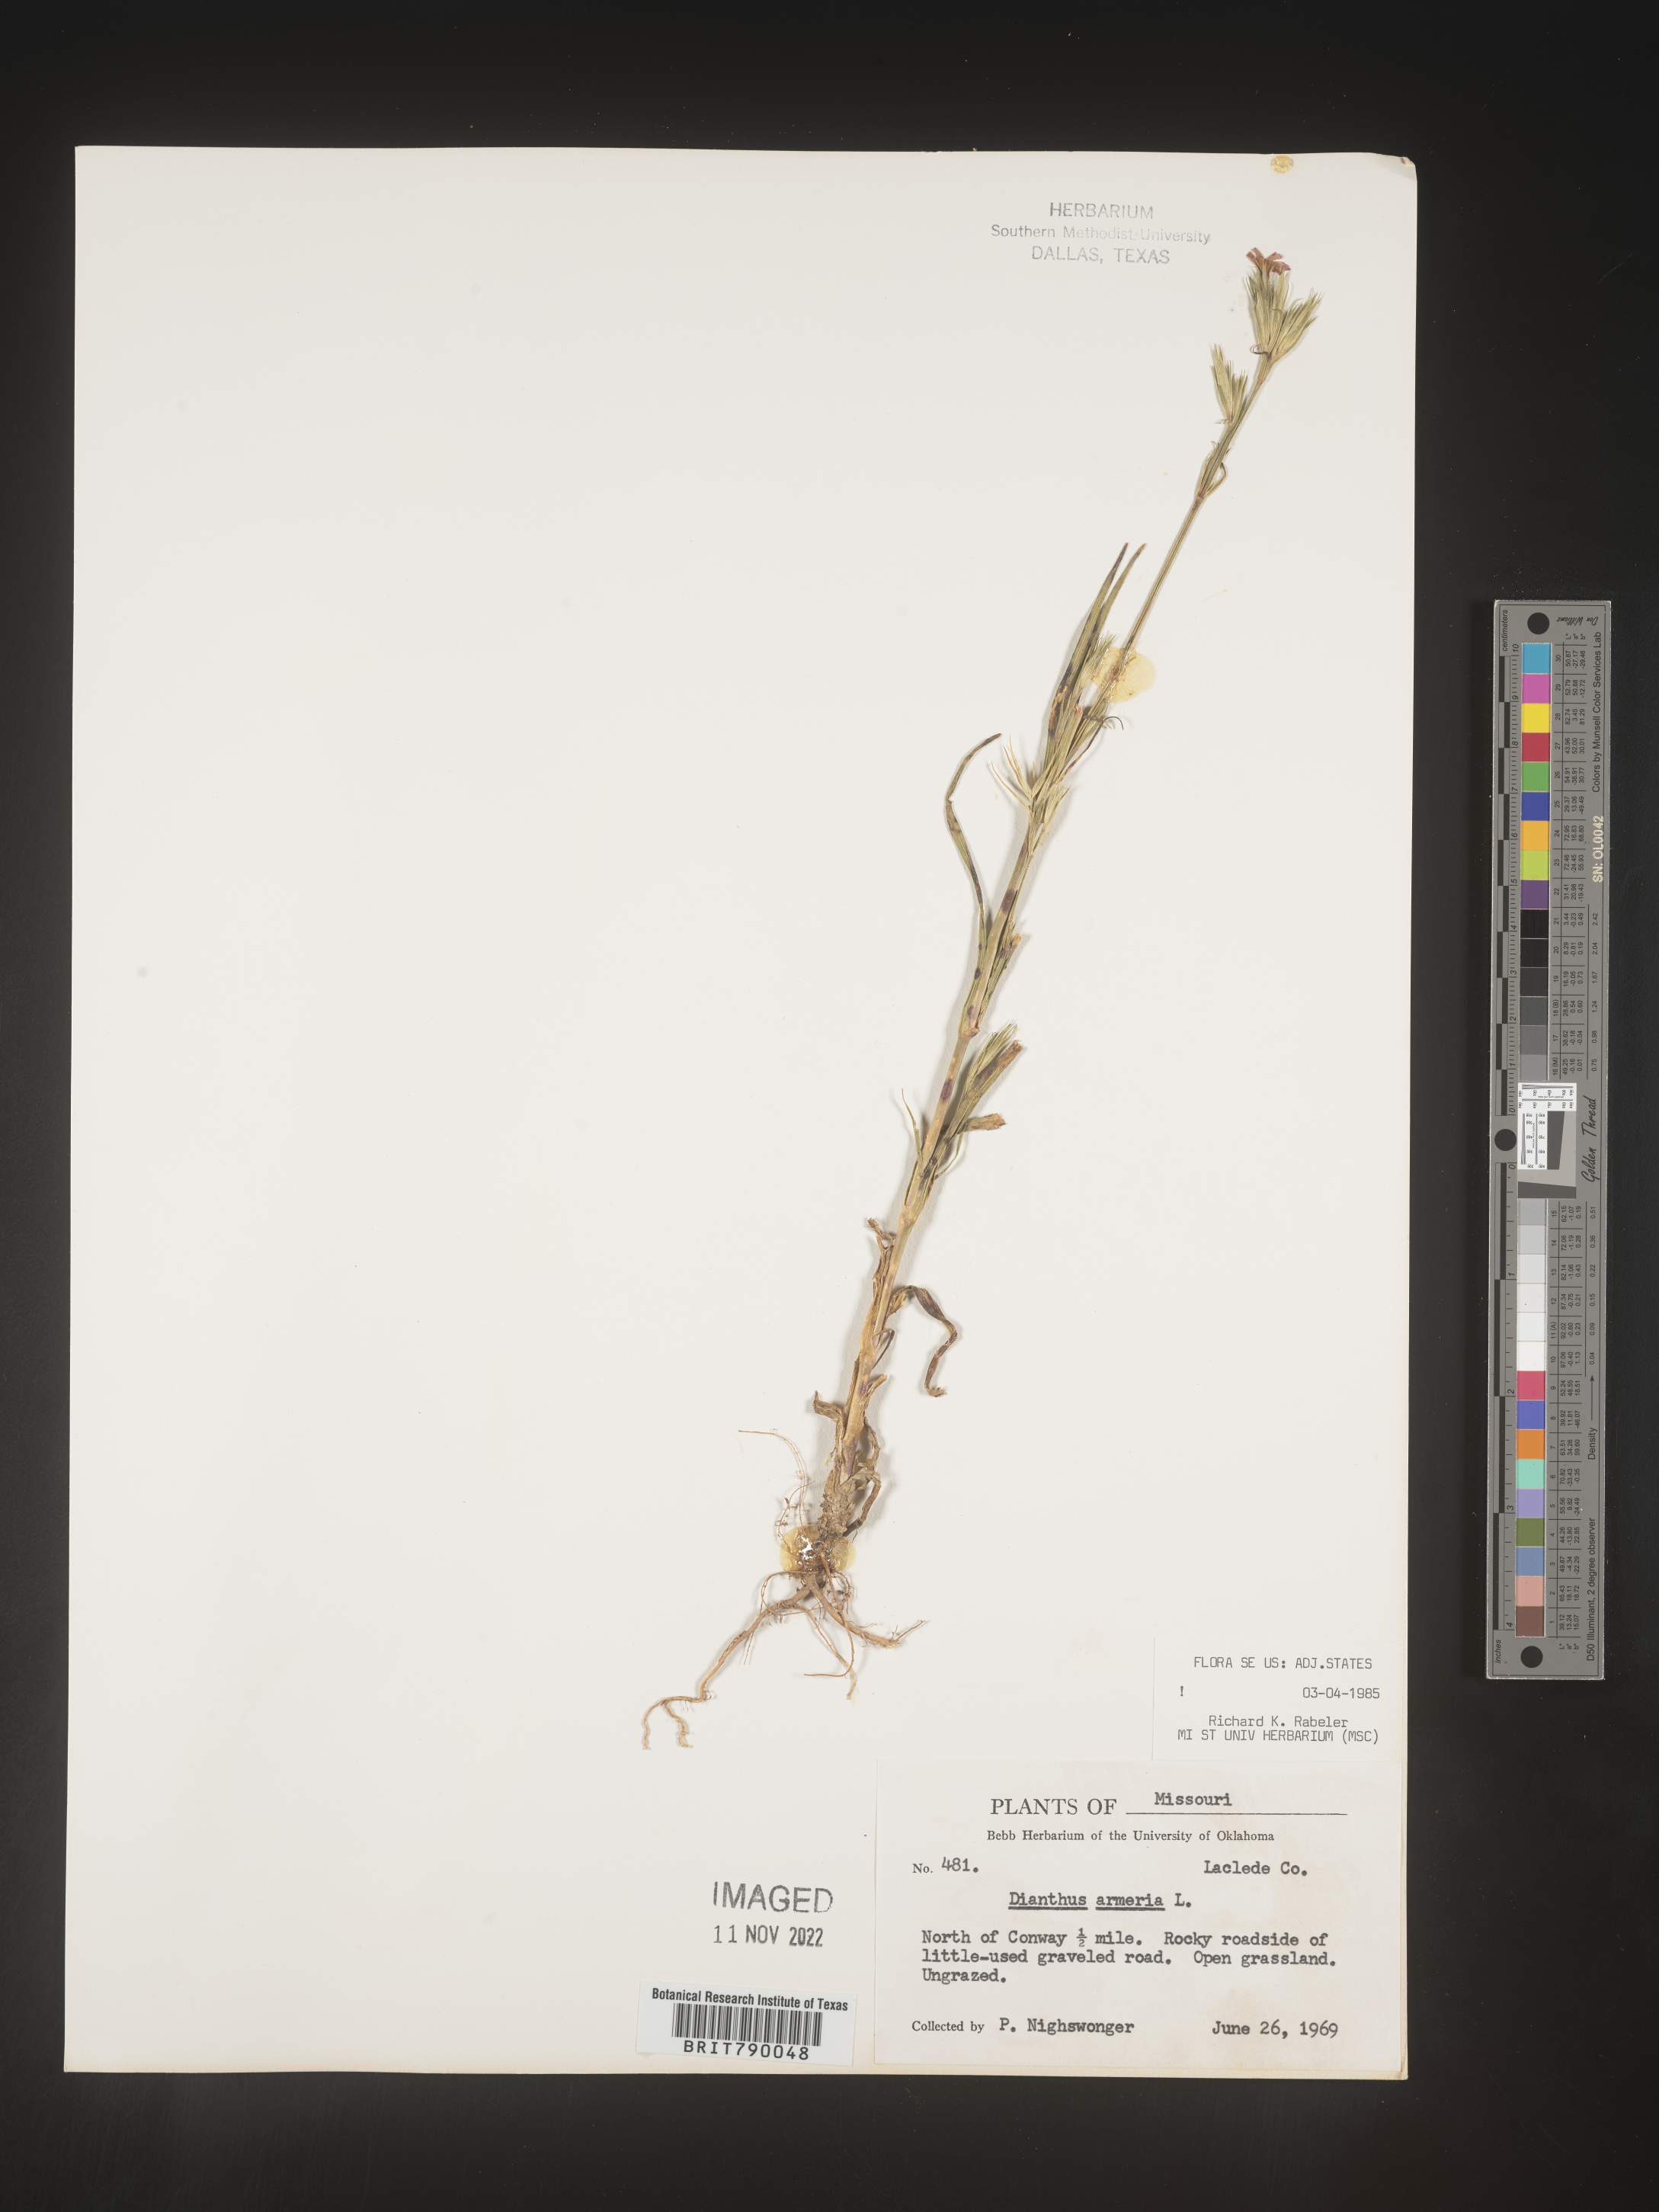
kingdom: Plantae
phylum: Tracheophyta
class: Magnoliopsida
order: Caryophyllales
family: Caryophyllaceae
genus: Dianthus
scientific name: Dianthus armeria
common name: Deptford pink
